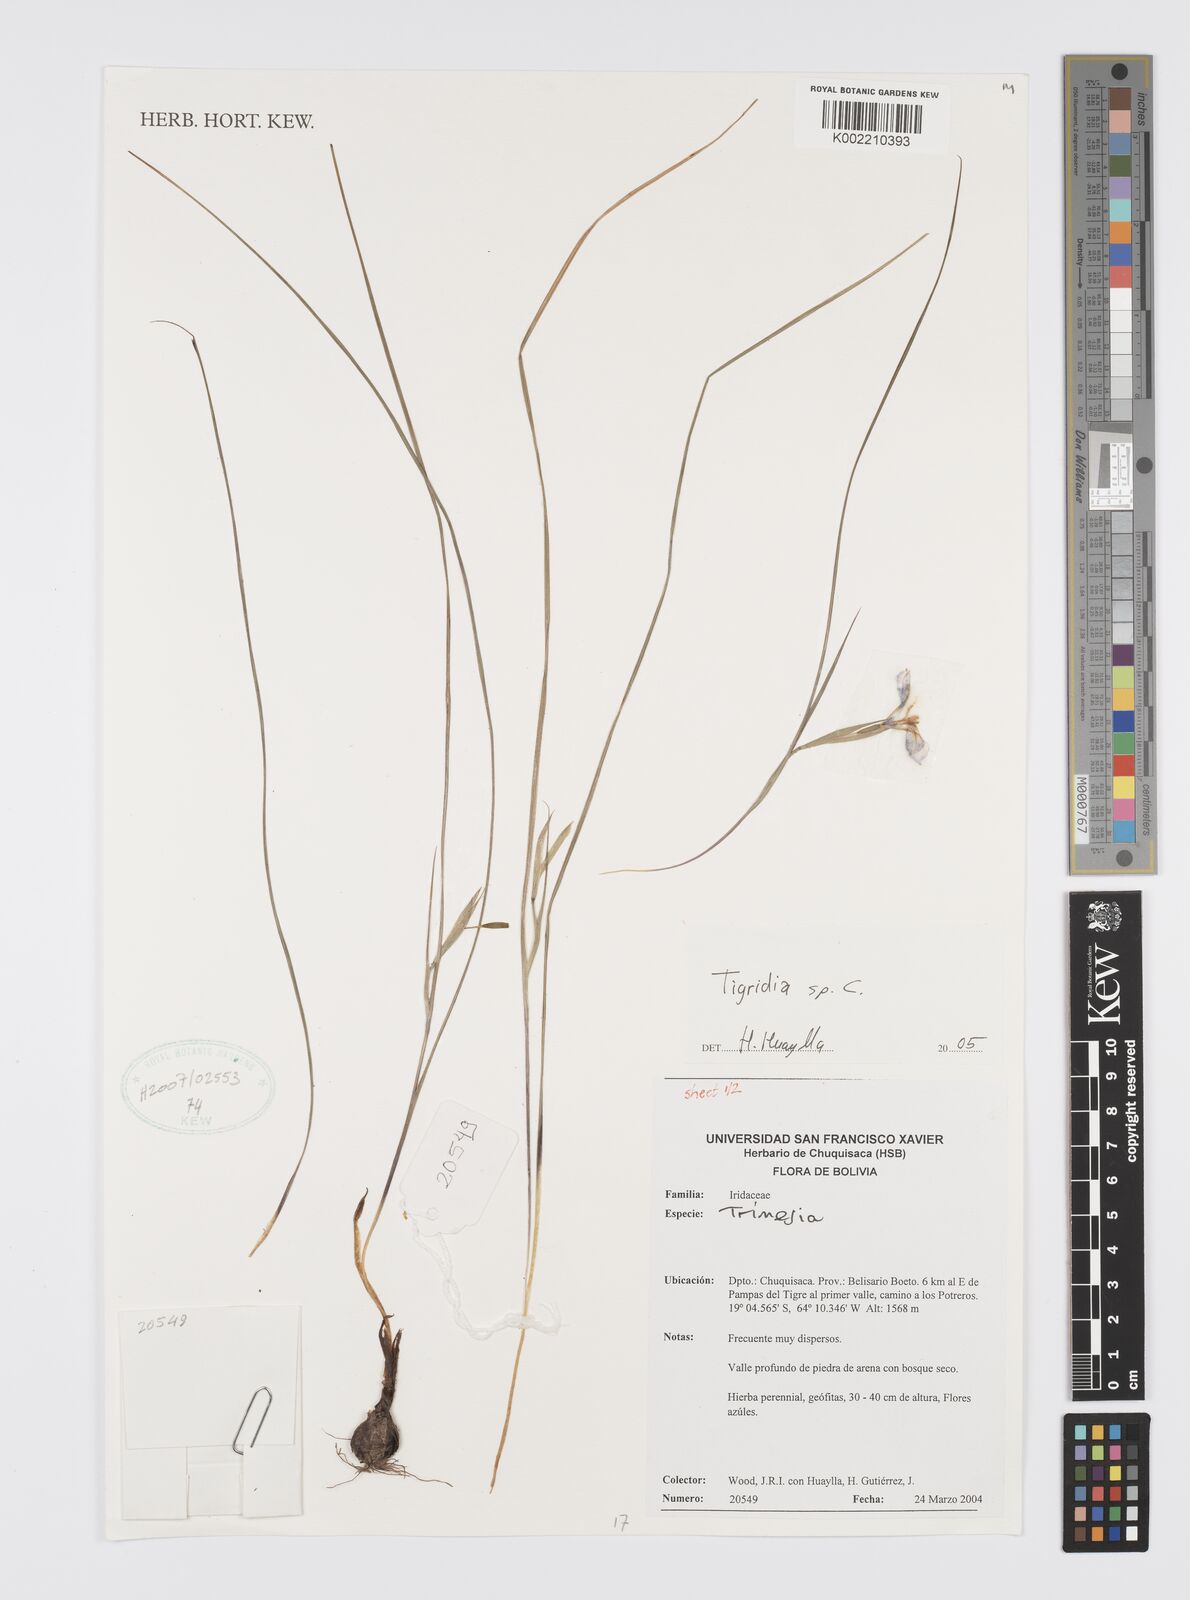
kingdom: Plantae
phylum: Tracheophyta
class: Liliopsida
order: Asparagales
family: Iridaceae
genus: Tigridia
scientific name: Tigridia
